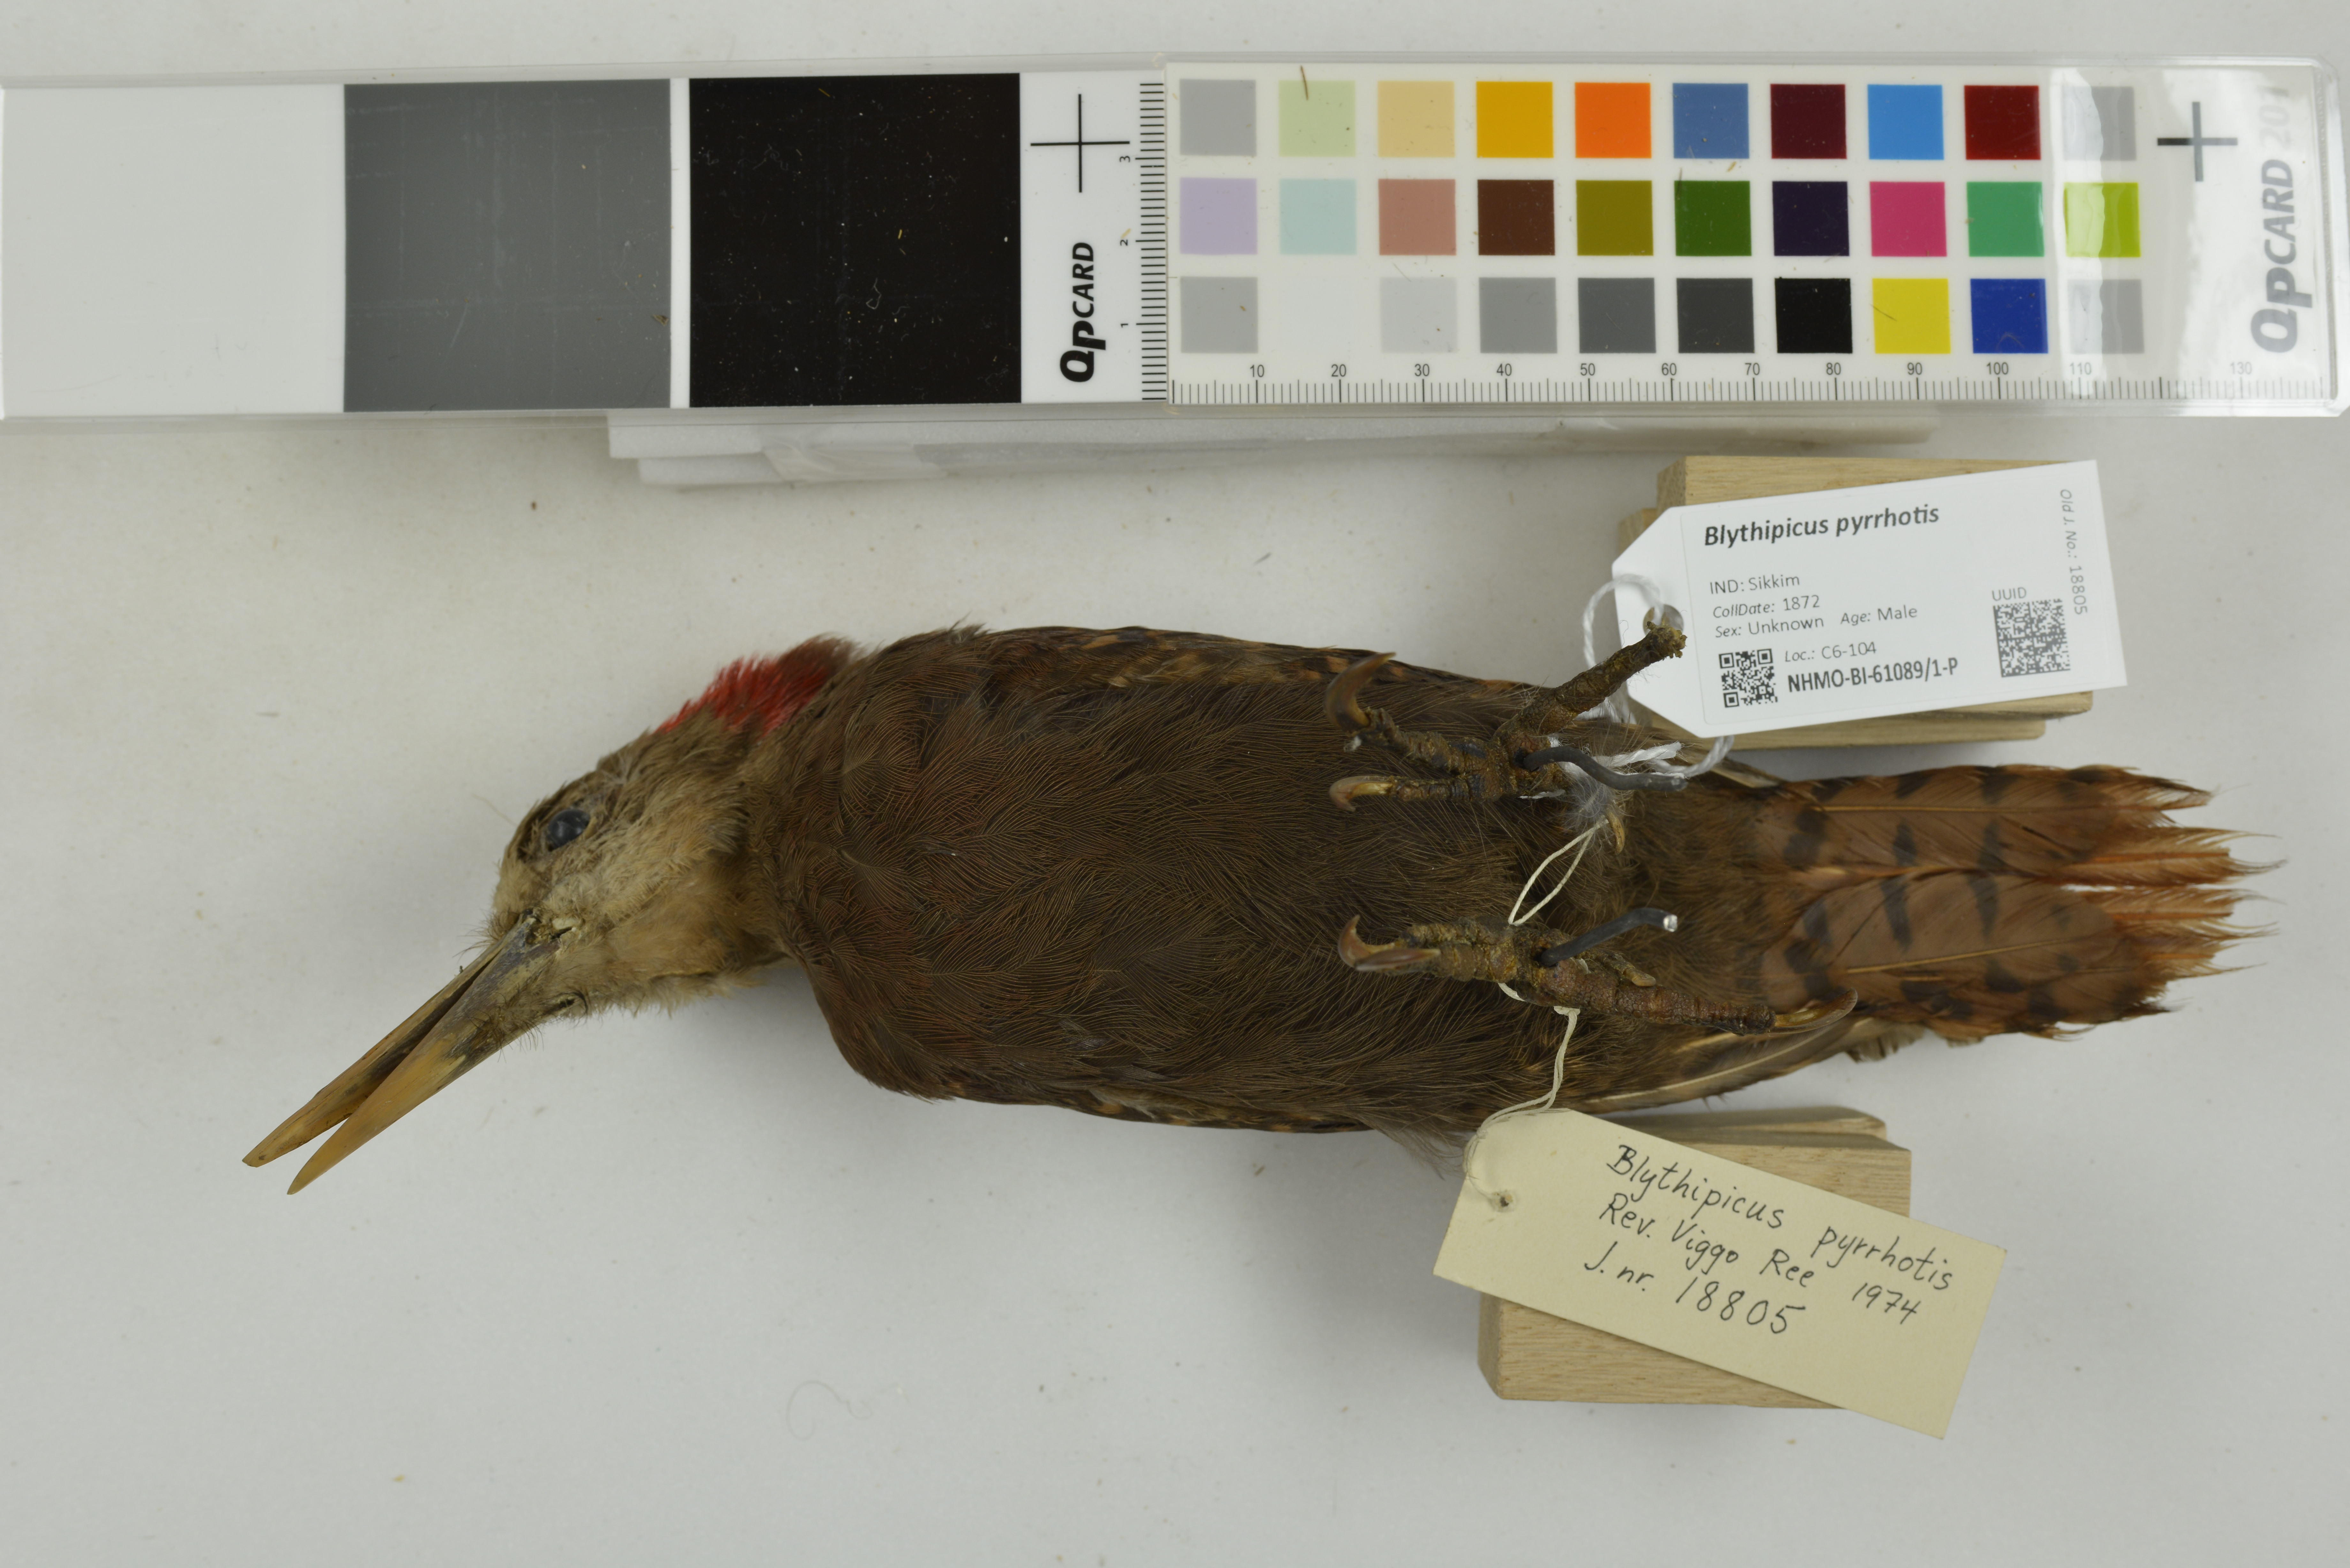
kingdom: Animalia
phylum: Chordata
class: Aves
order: Piciformes
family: Picidae
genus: Blythipicus
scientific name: Blythipicus pyrrhotis
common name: Bay woodpecker
